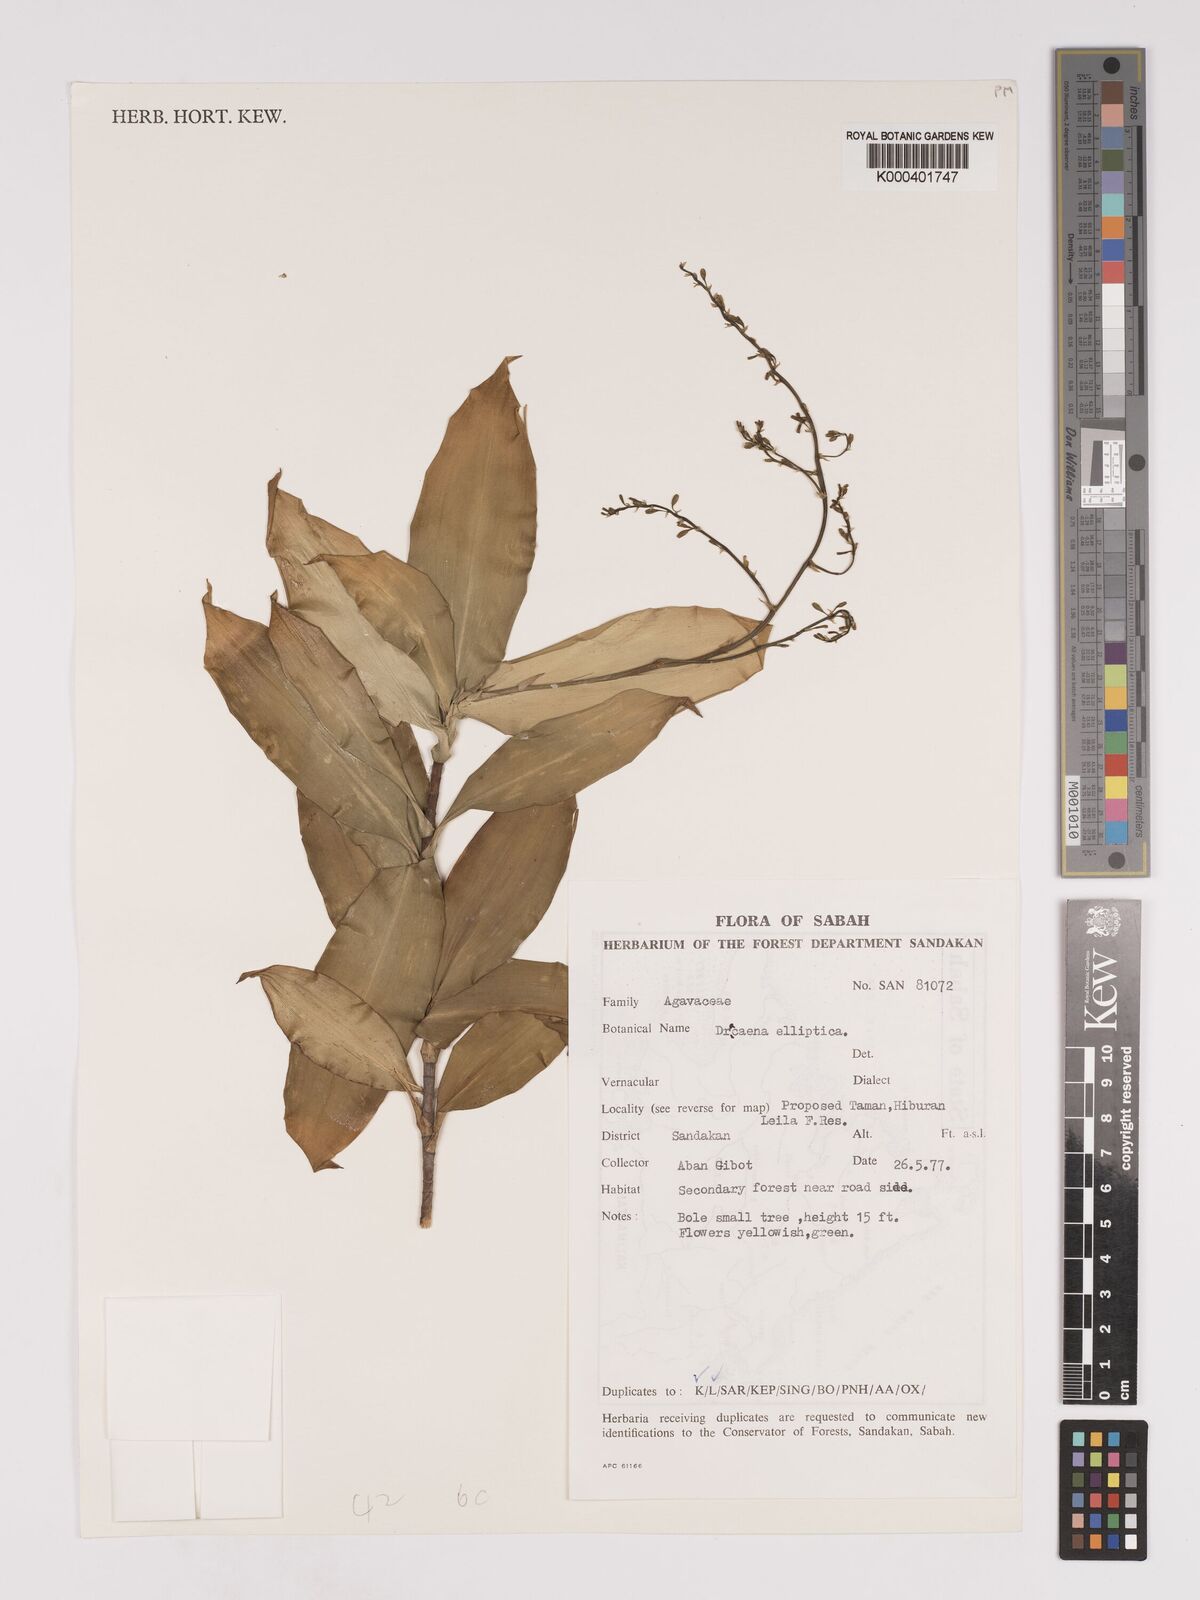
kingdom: Plantae
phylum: Tracheophyta
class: Liliopsida
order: Asparagales
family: Asparagaceae
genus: Dracaena
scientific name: Dracaena elliptica
